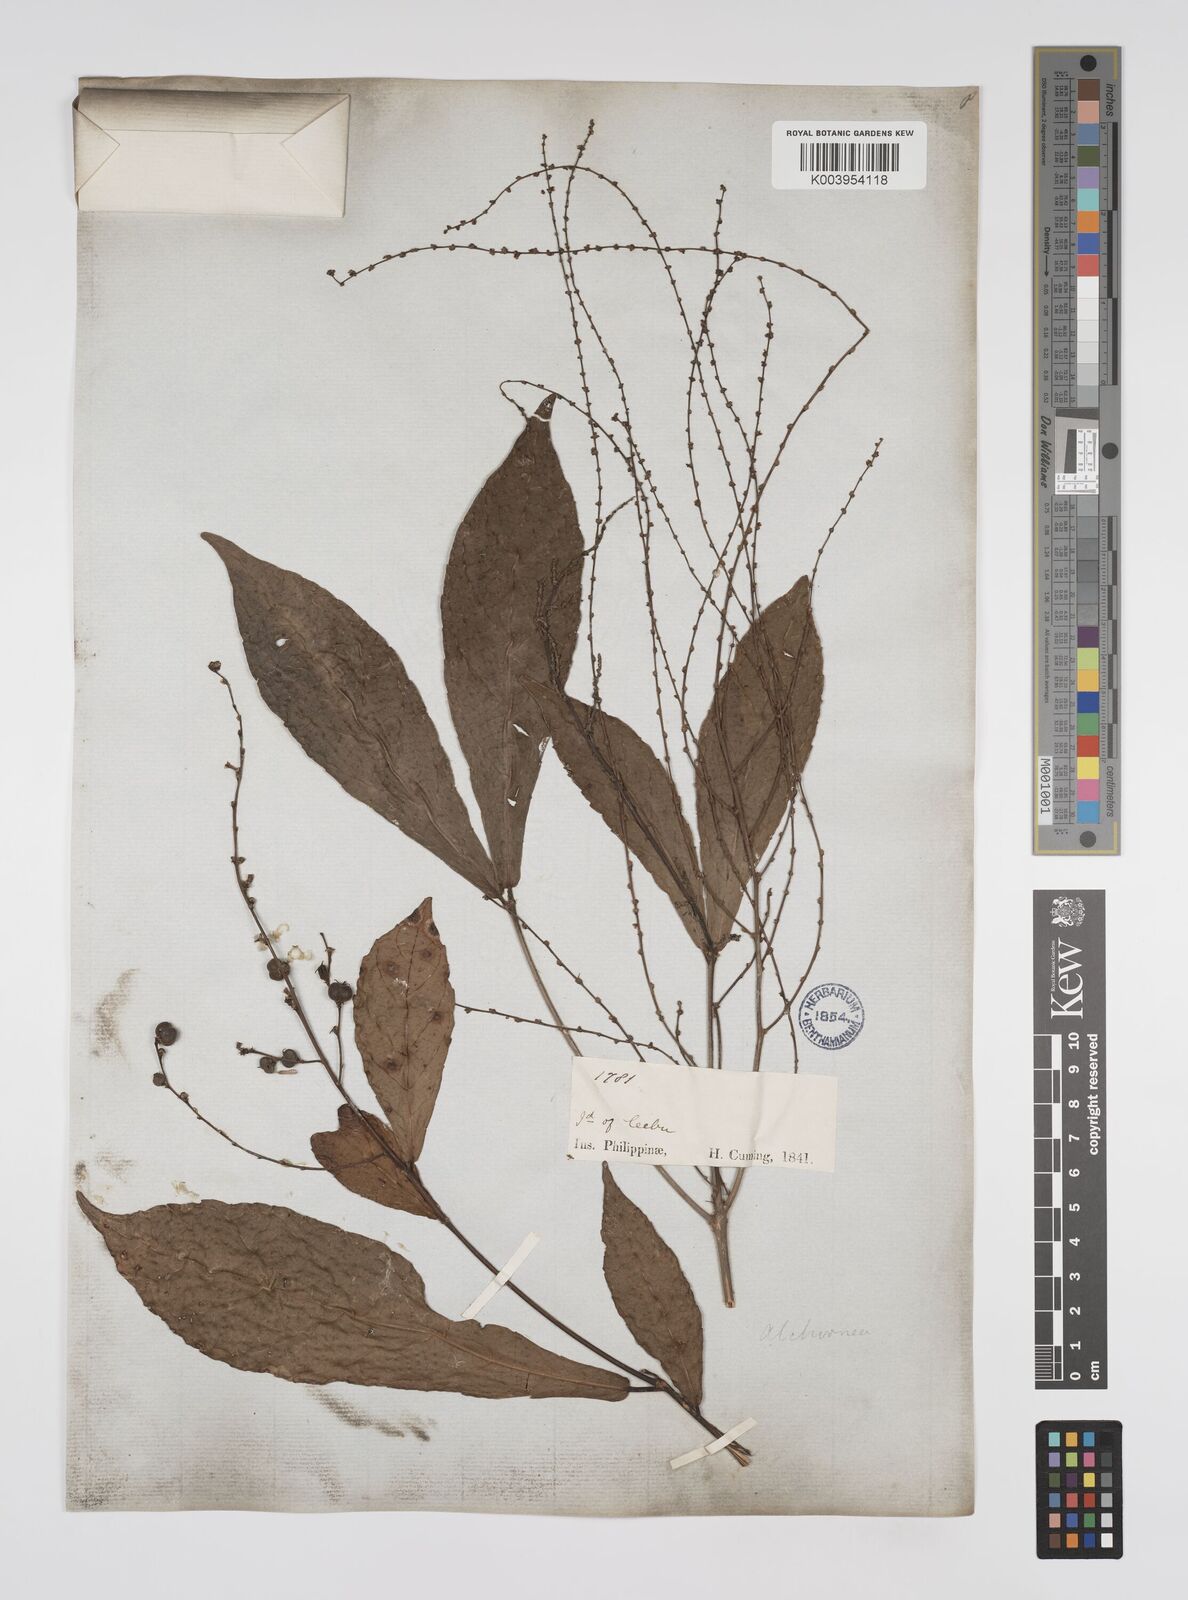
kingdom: Plantae
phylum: Tracheophyta
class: Magnoliopsida
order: Malpighiales
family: Euphorbiaceae
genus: Alchornea
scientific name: Alchornea rugosa
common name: Alchorntree
